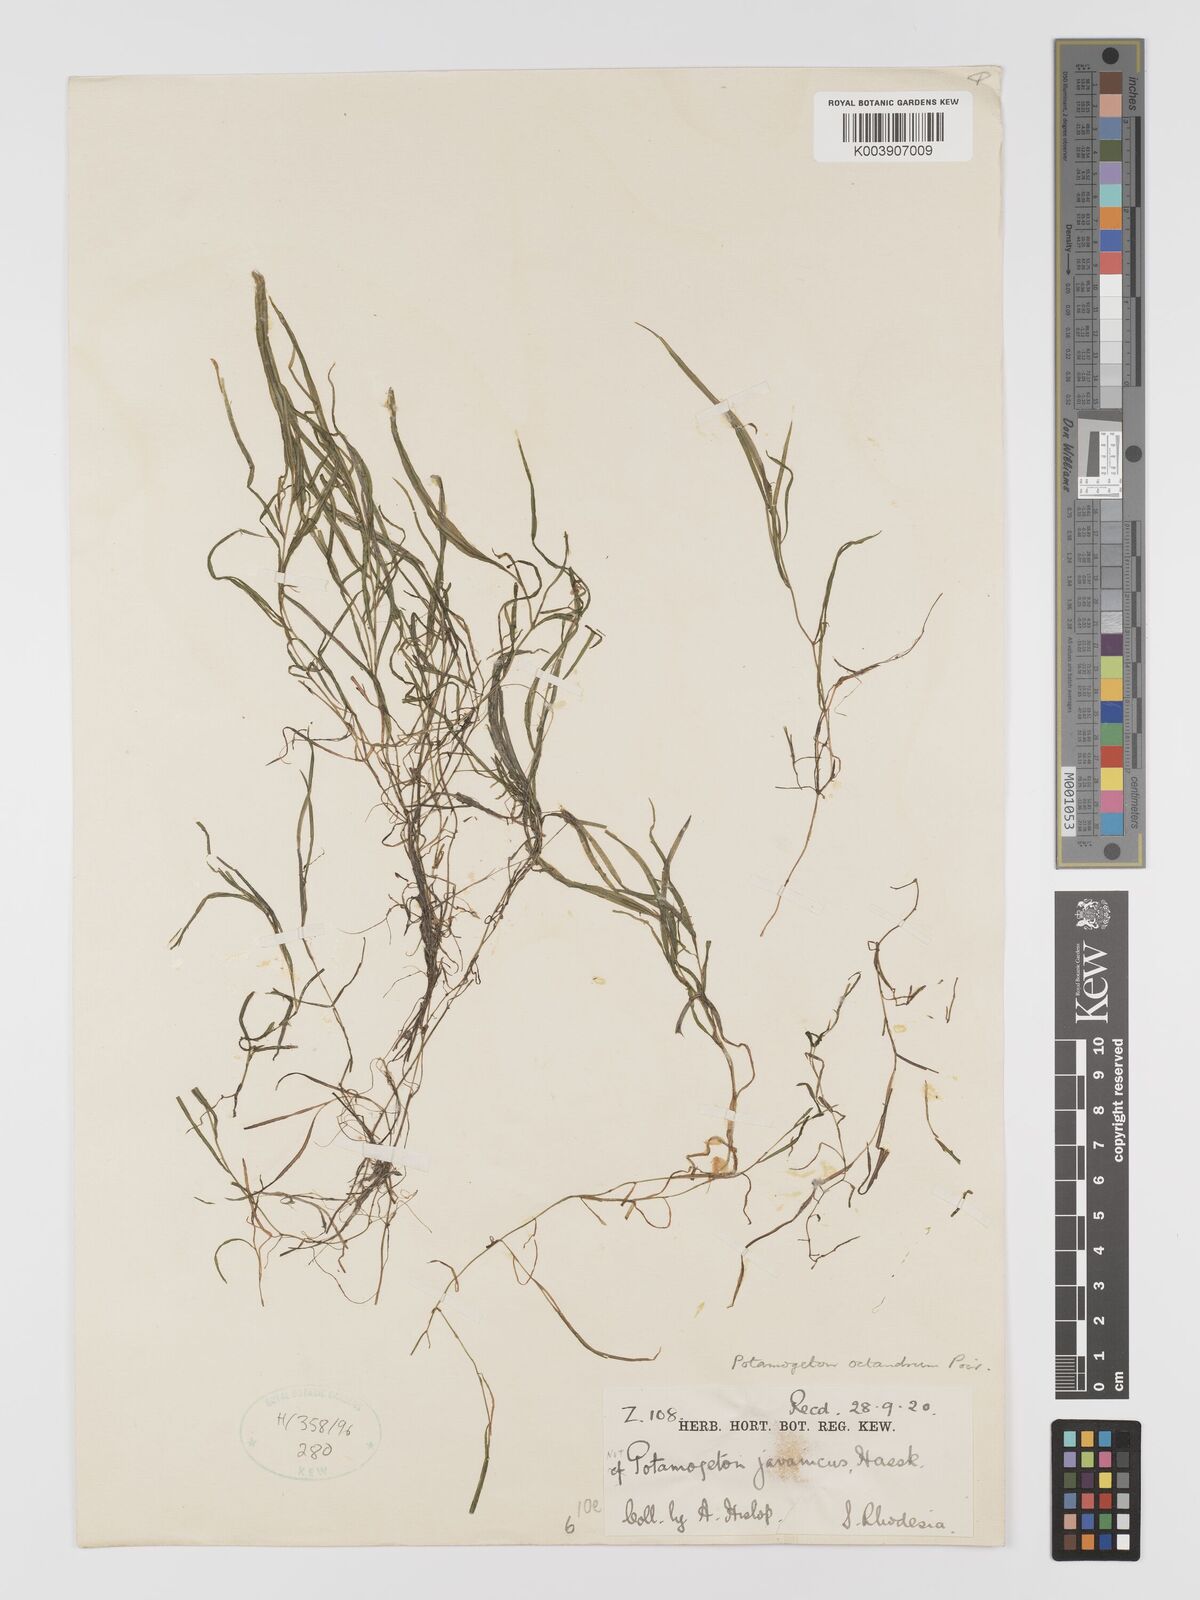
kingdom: Plantae
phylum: Tracheophyta
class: Liliopsida
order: Alismatales
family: Potamogetonaceae
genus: Potamogeton
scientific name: Potamogeton octandrus
